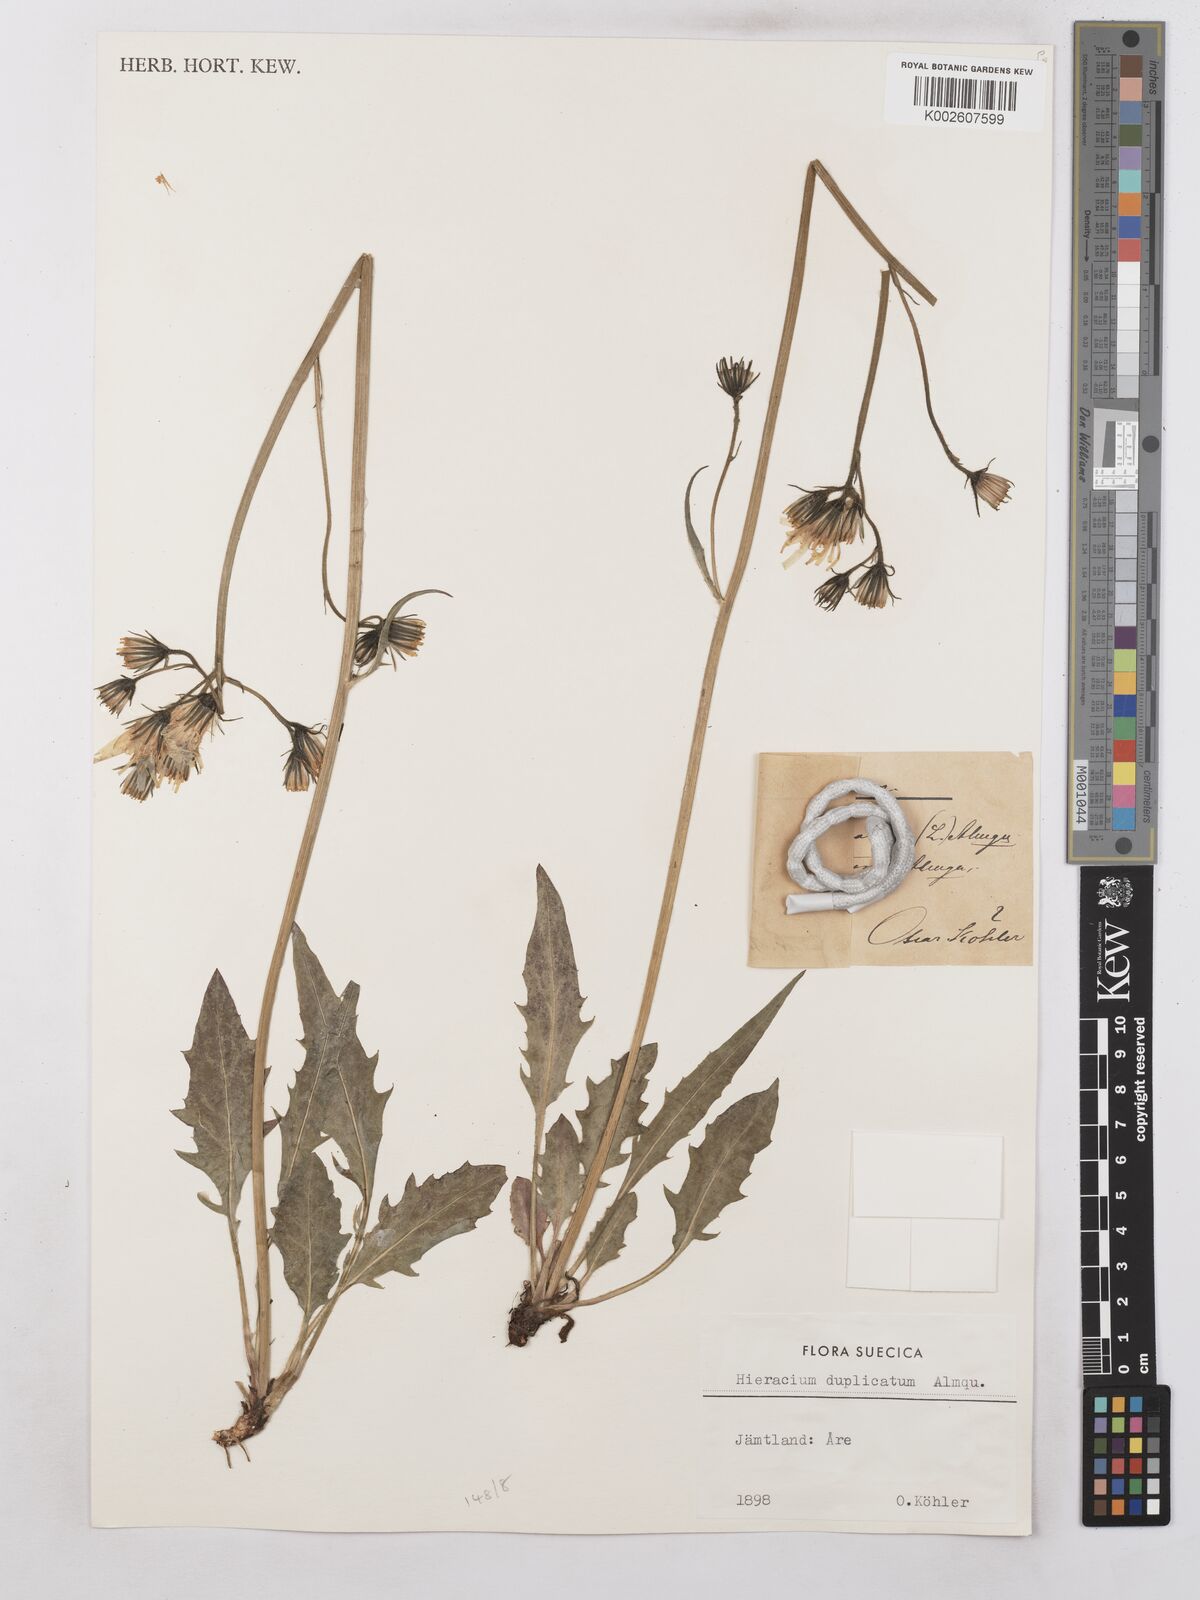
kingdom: Plantae
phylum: Tracheophyta
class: Magnoliopsida
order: Asterales
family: Asteraceae
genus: Hieracium
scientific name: Hieracium subramosum
